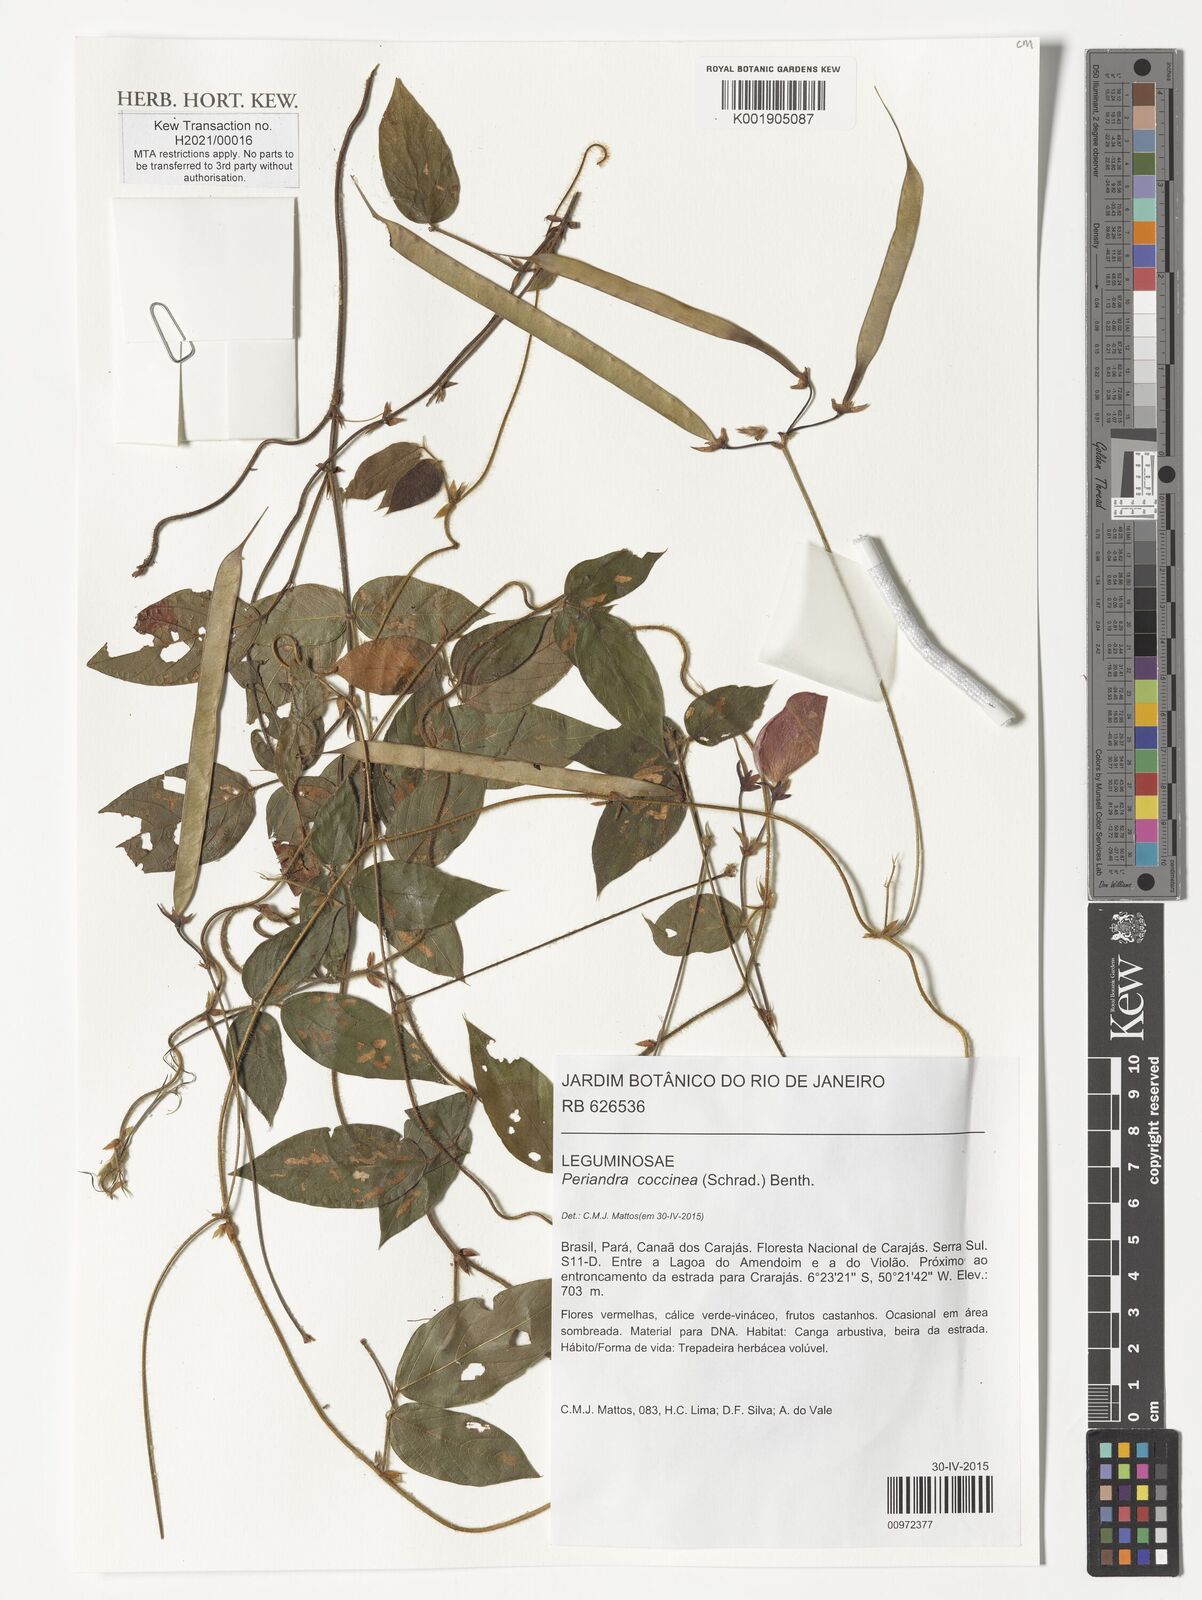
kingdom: Plantae
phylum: Tracheophyta
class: Magnoliopsida
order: Fabales
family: Fabaceae
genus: Periandra
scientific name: Periandra coccinea
